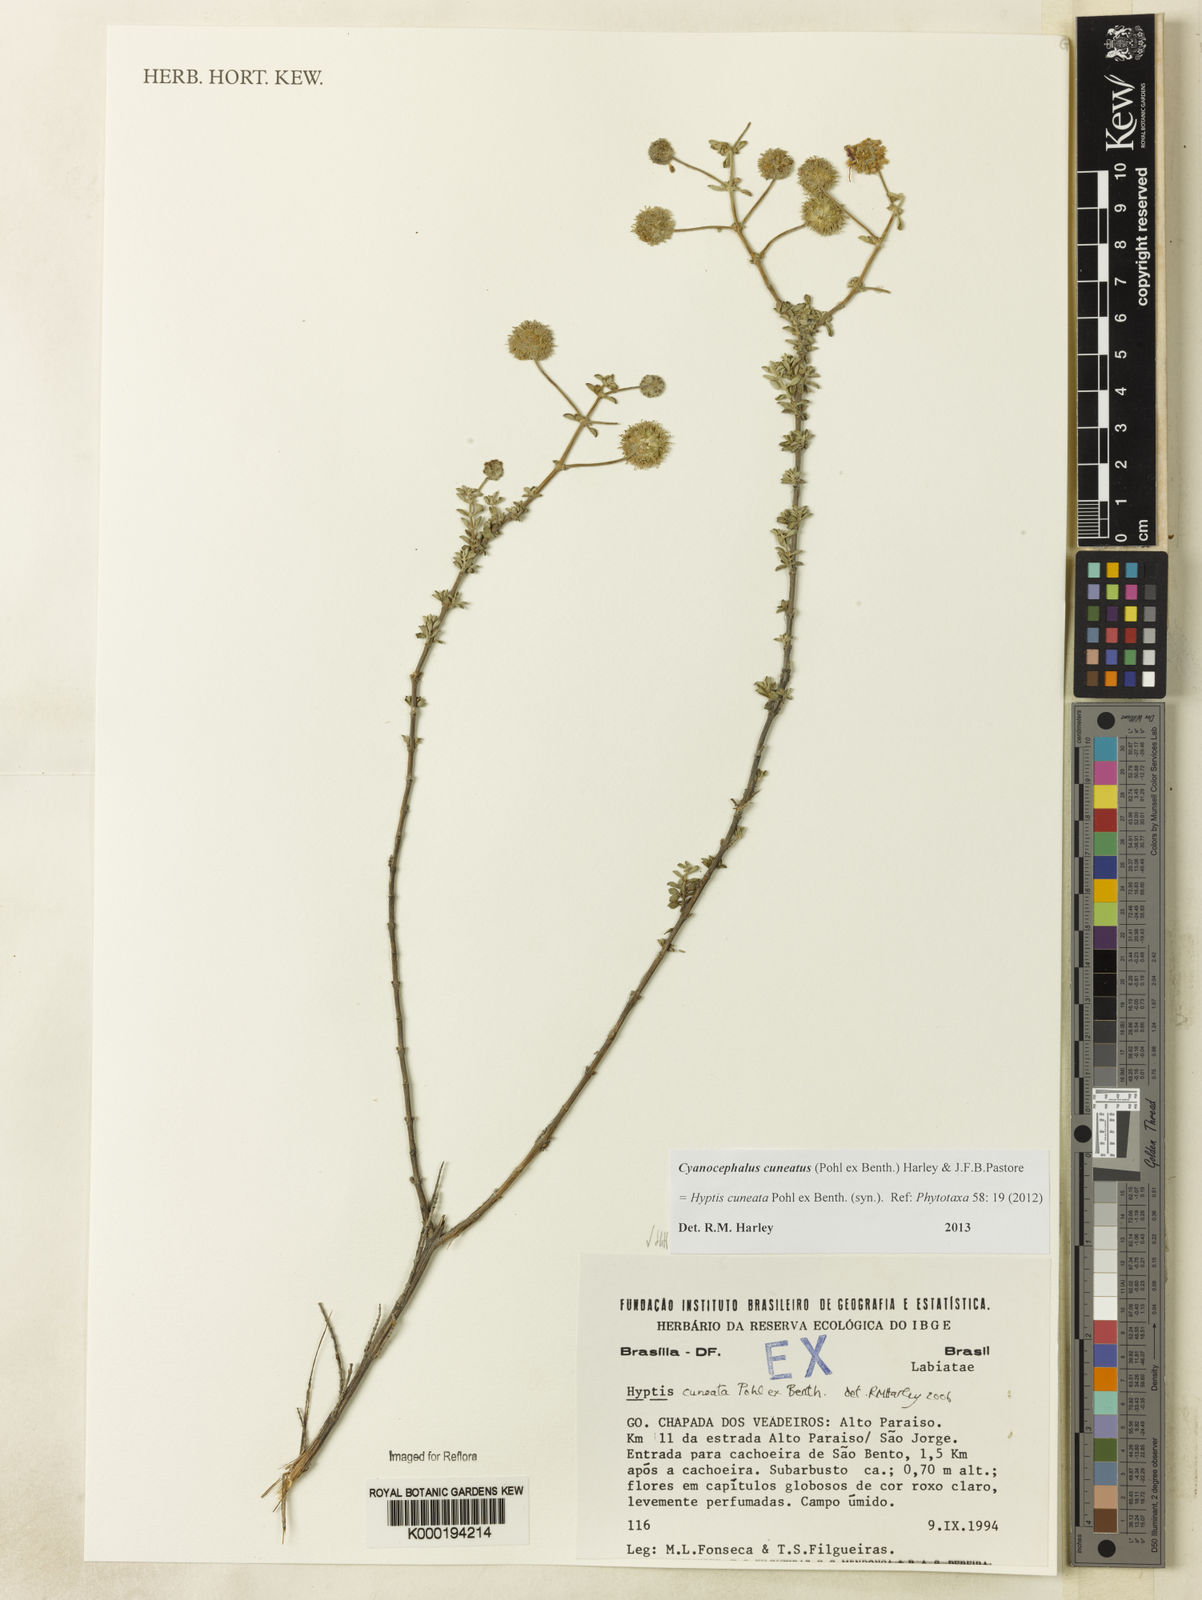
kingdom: Plantae
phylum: Tracheophyta
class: Magnoliopsida
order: Lamiales
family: Lamiaceae
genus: Cyanocephalus
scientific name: Cyanocephalus cuneatus
